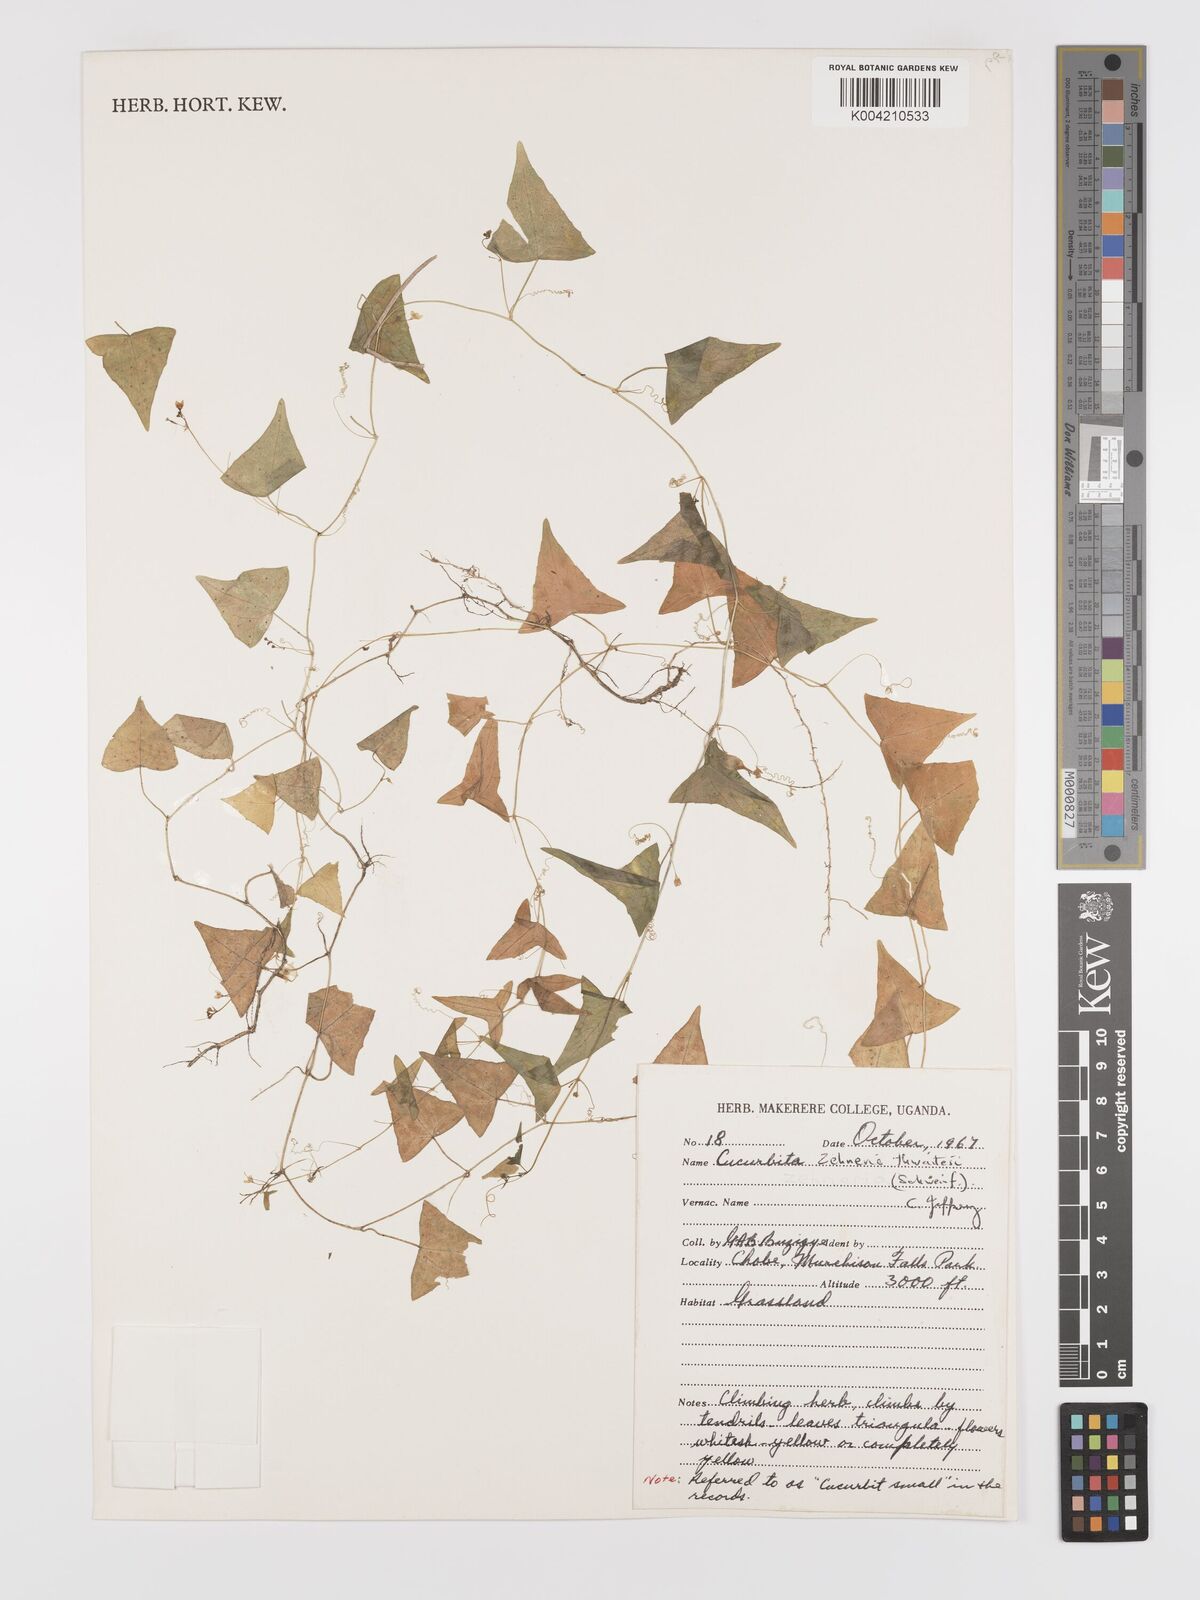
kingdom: Plantae
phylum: Tracheophyta
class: Magnoliopsida
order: Cucurbitales
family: Cucurbitaceae
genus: Zehneria
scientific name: Zehneria thwaitesii
